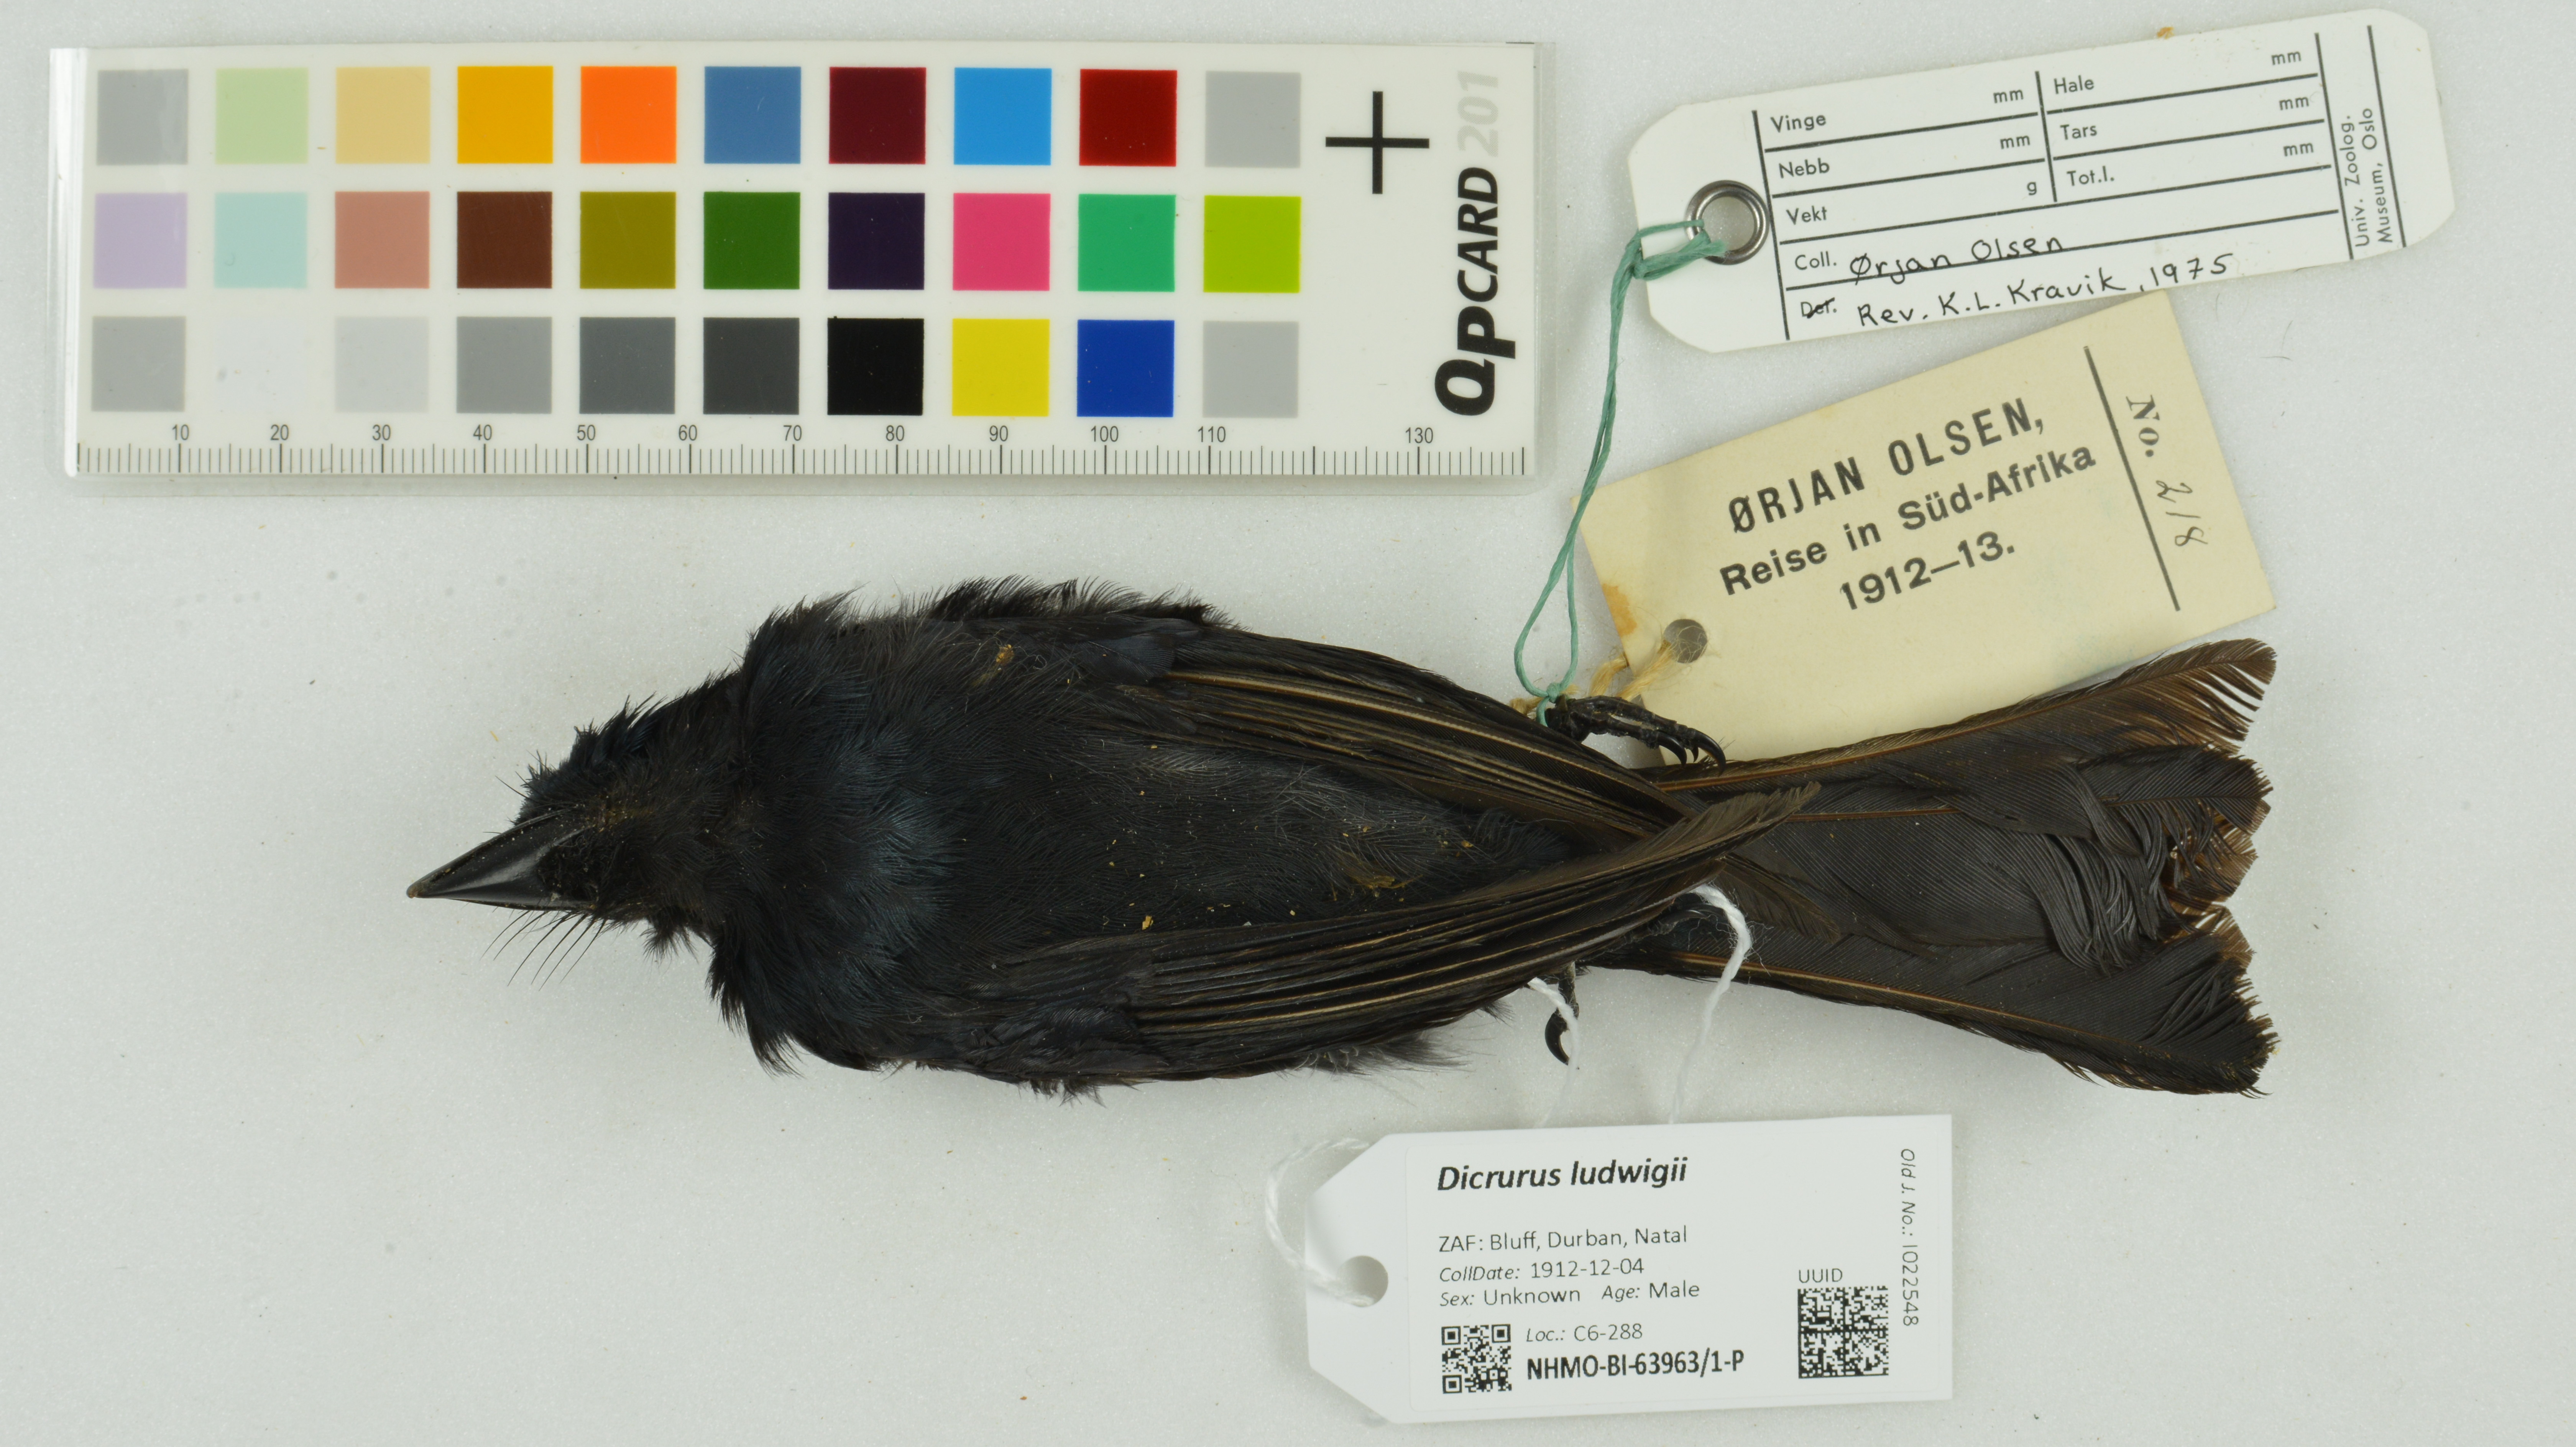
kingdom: Animalia
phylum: Chordata
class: Aves
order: Passeriformes
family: Dicruridae
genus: Dicrurus
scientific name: Dicrurus ludwigii
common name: Square-tailed drongo
